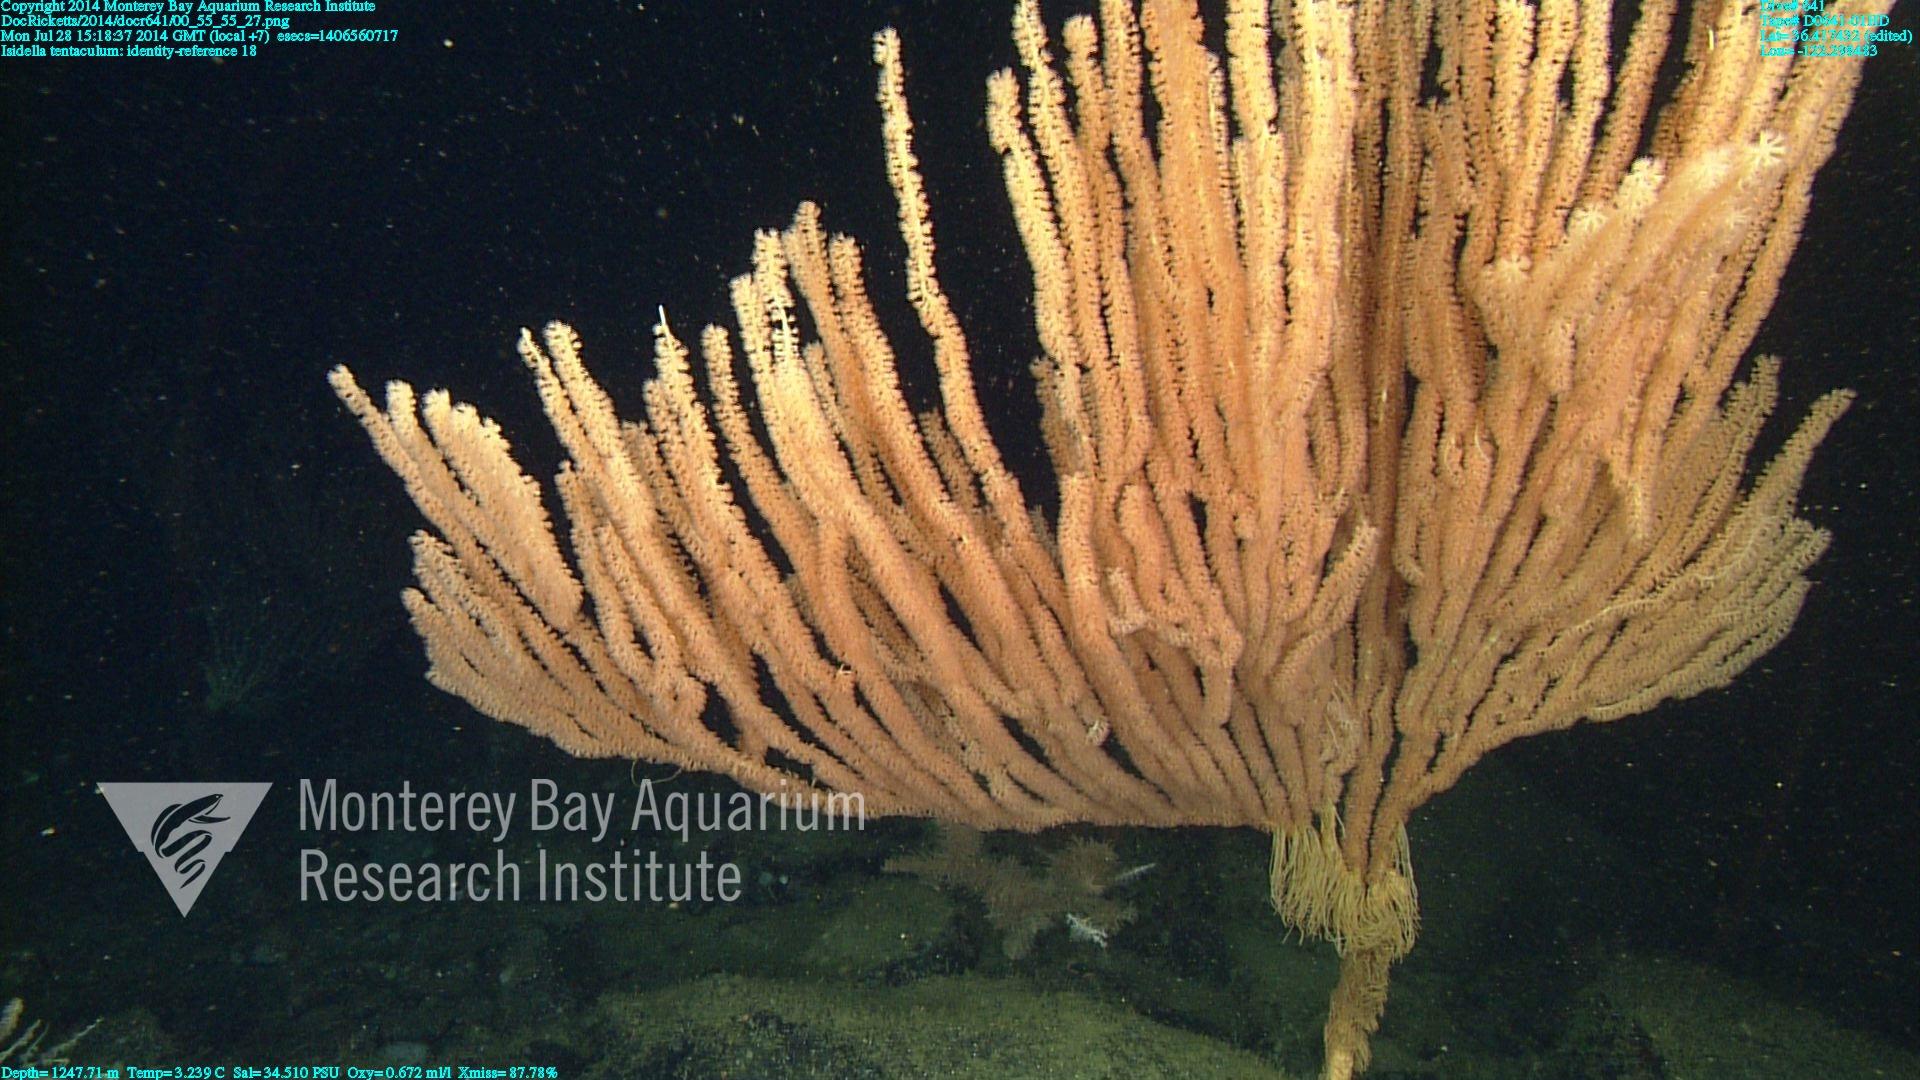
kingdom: Animalia
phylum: Cnidaria
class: Anthozoa
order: Scleralcyonacea
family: Keratoisididae
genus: Isidella
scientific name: Isidella tentaculum
